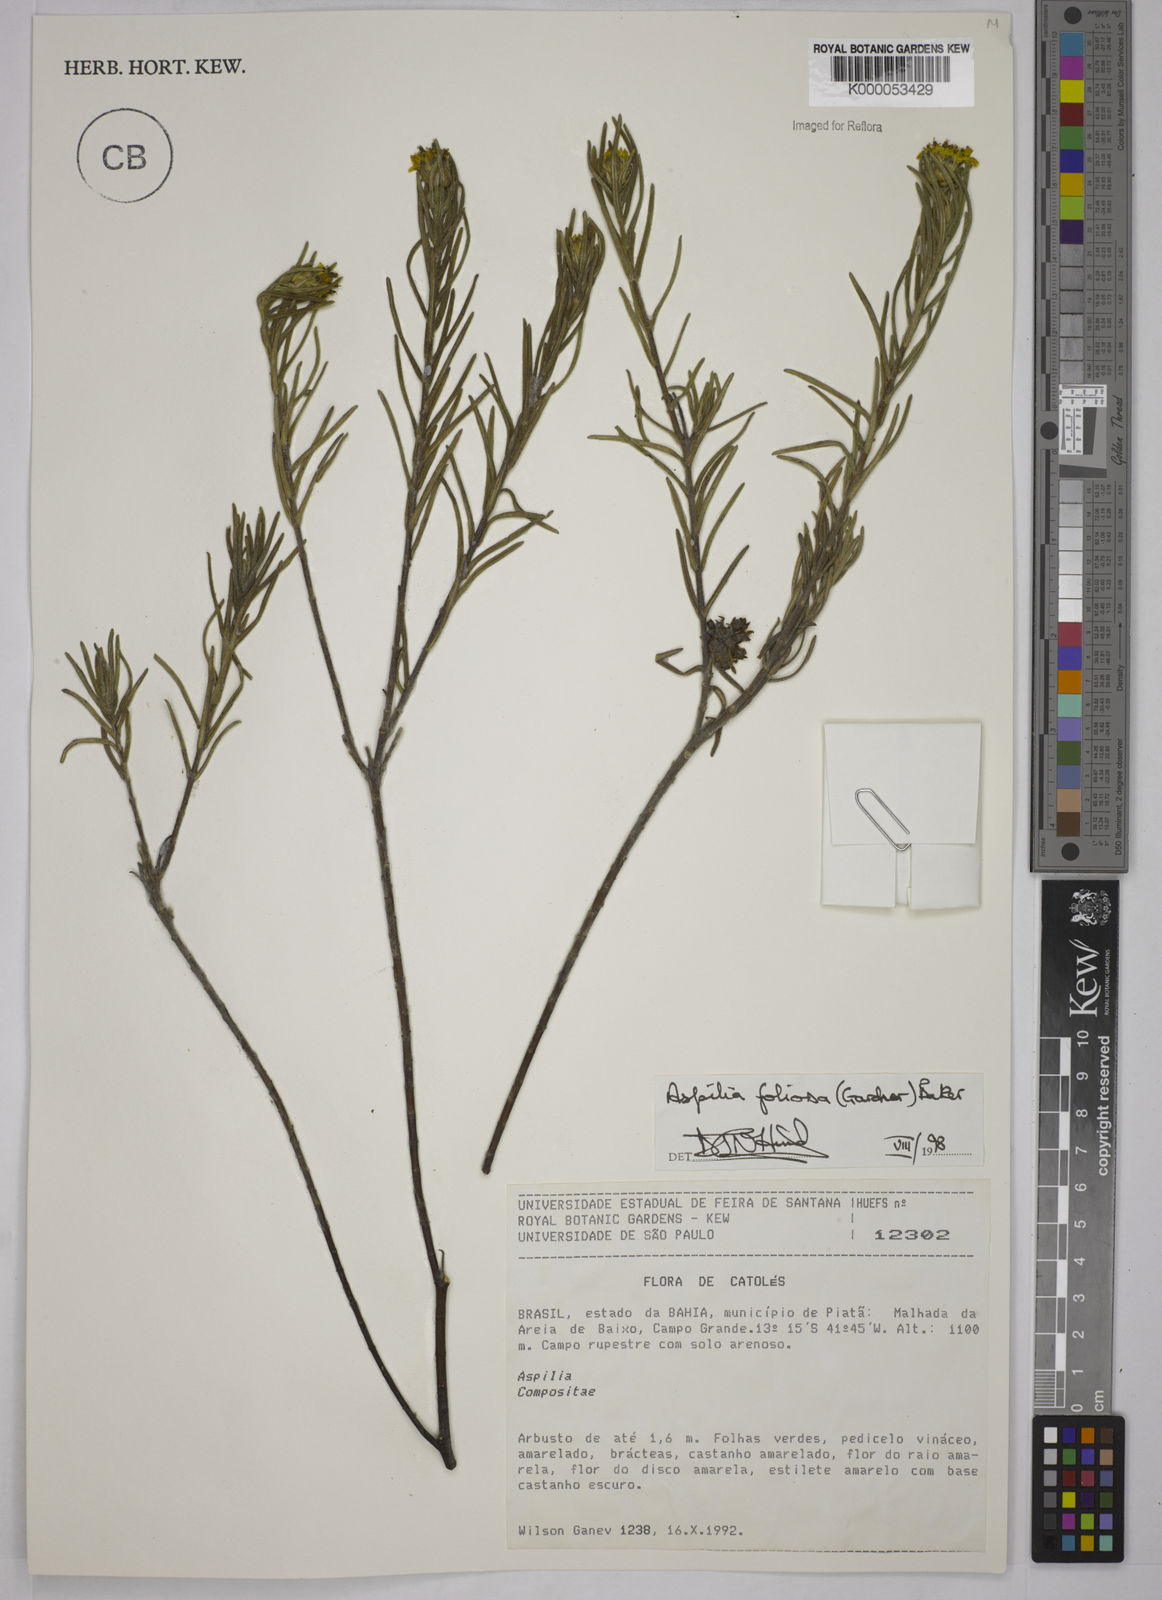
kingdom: Plantae
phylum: Tracheophyta
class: Magnoliopsida
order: Asterales
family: Asteraceae
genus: Aspilia
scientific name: Aspilia
